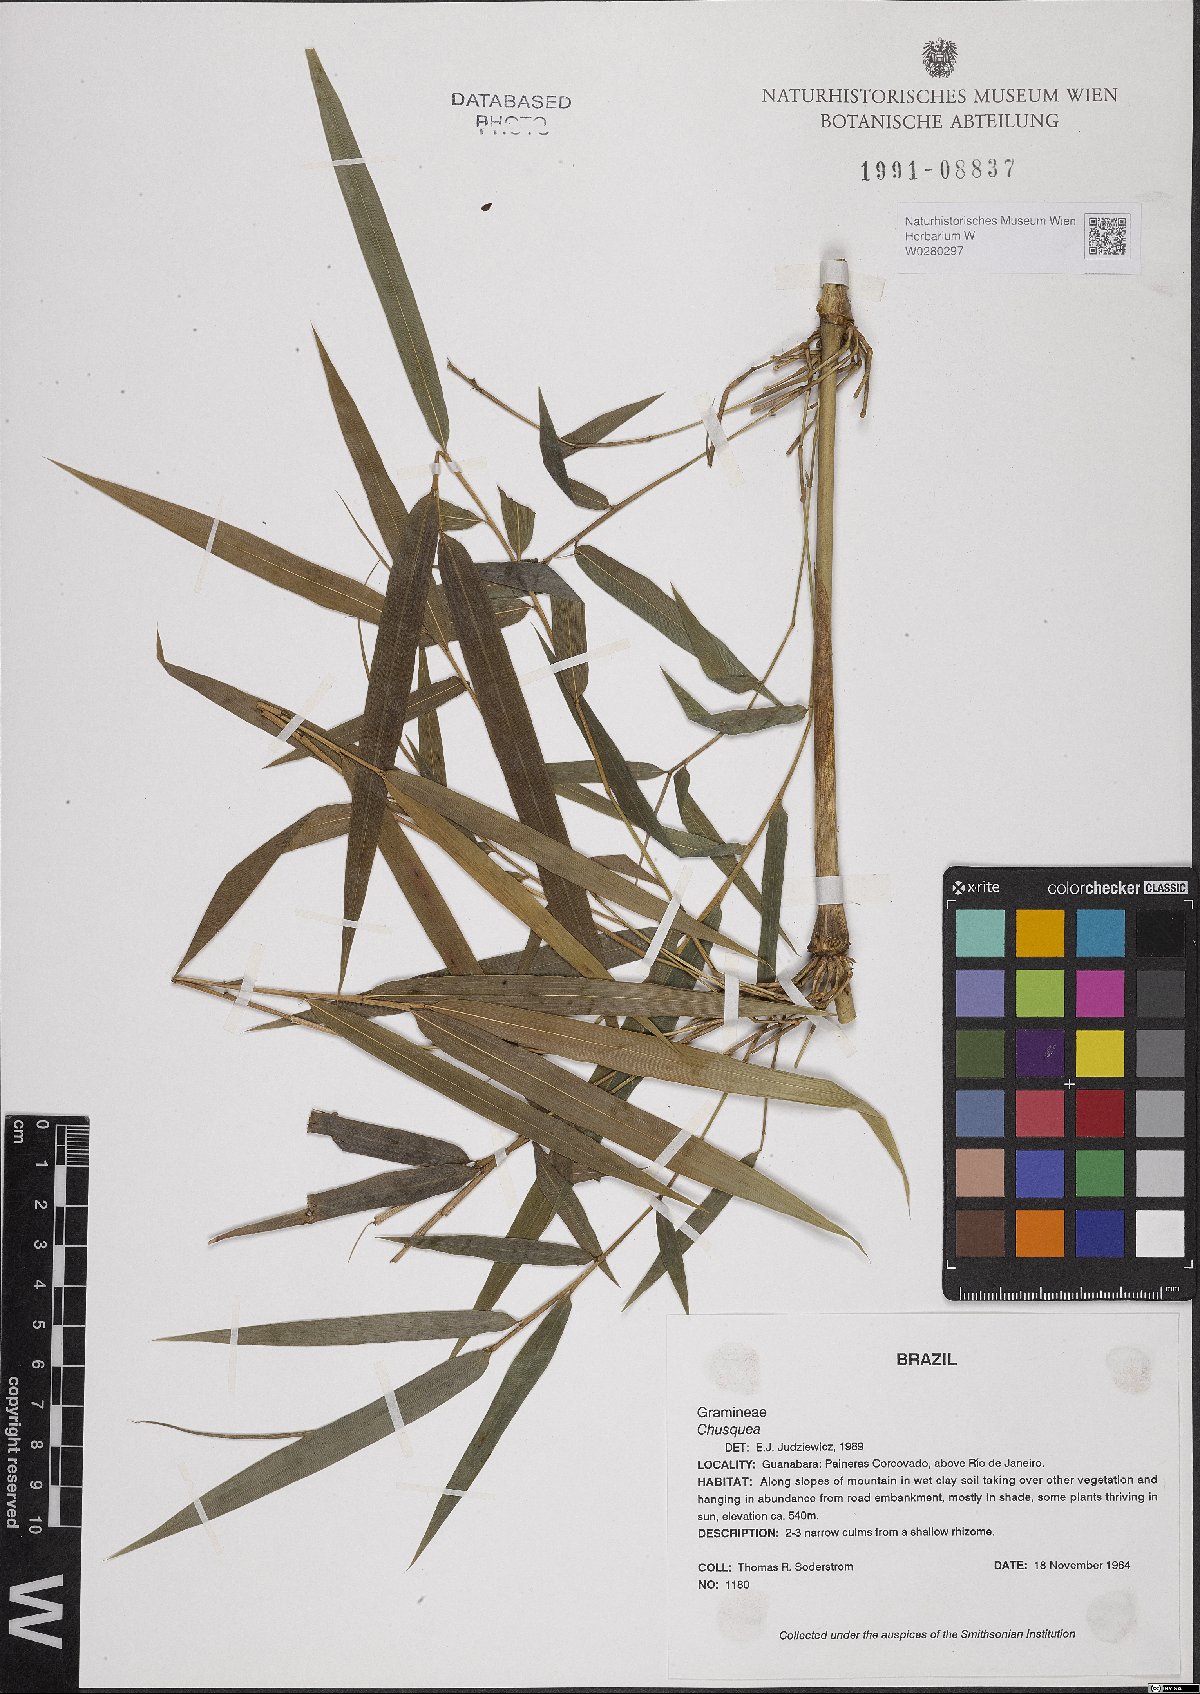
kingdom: Plantae
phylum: Tracheophyta
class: Liliopsida
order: Poales
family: Poaceae
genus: Chusquea
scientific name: Chusquea
